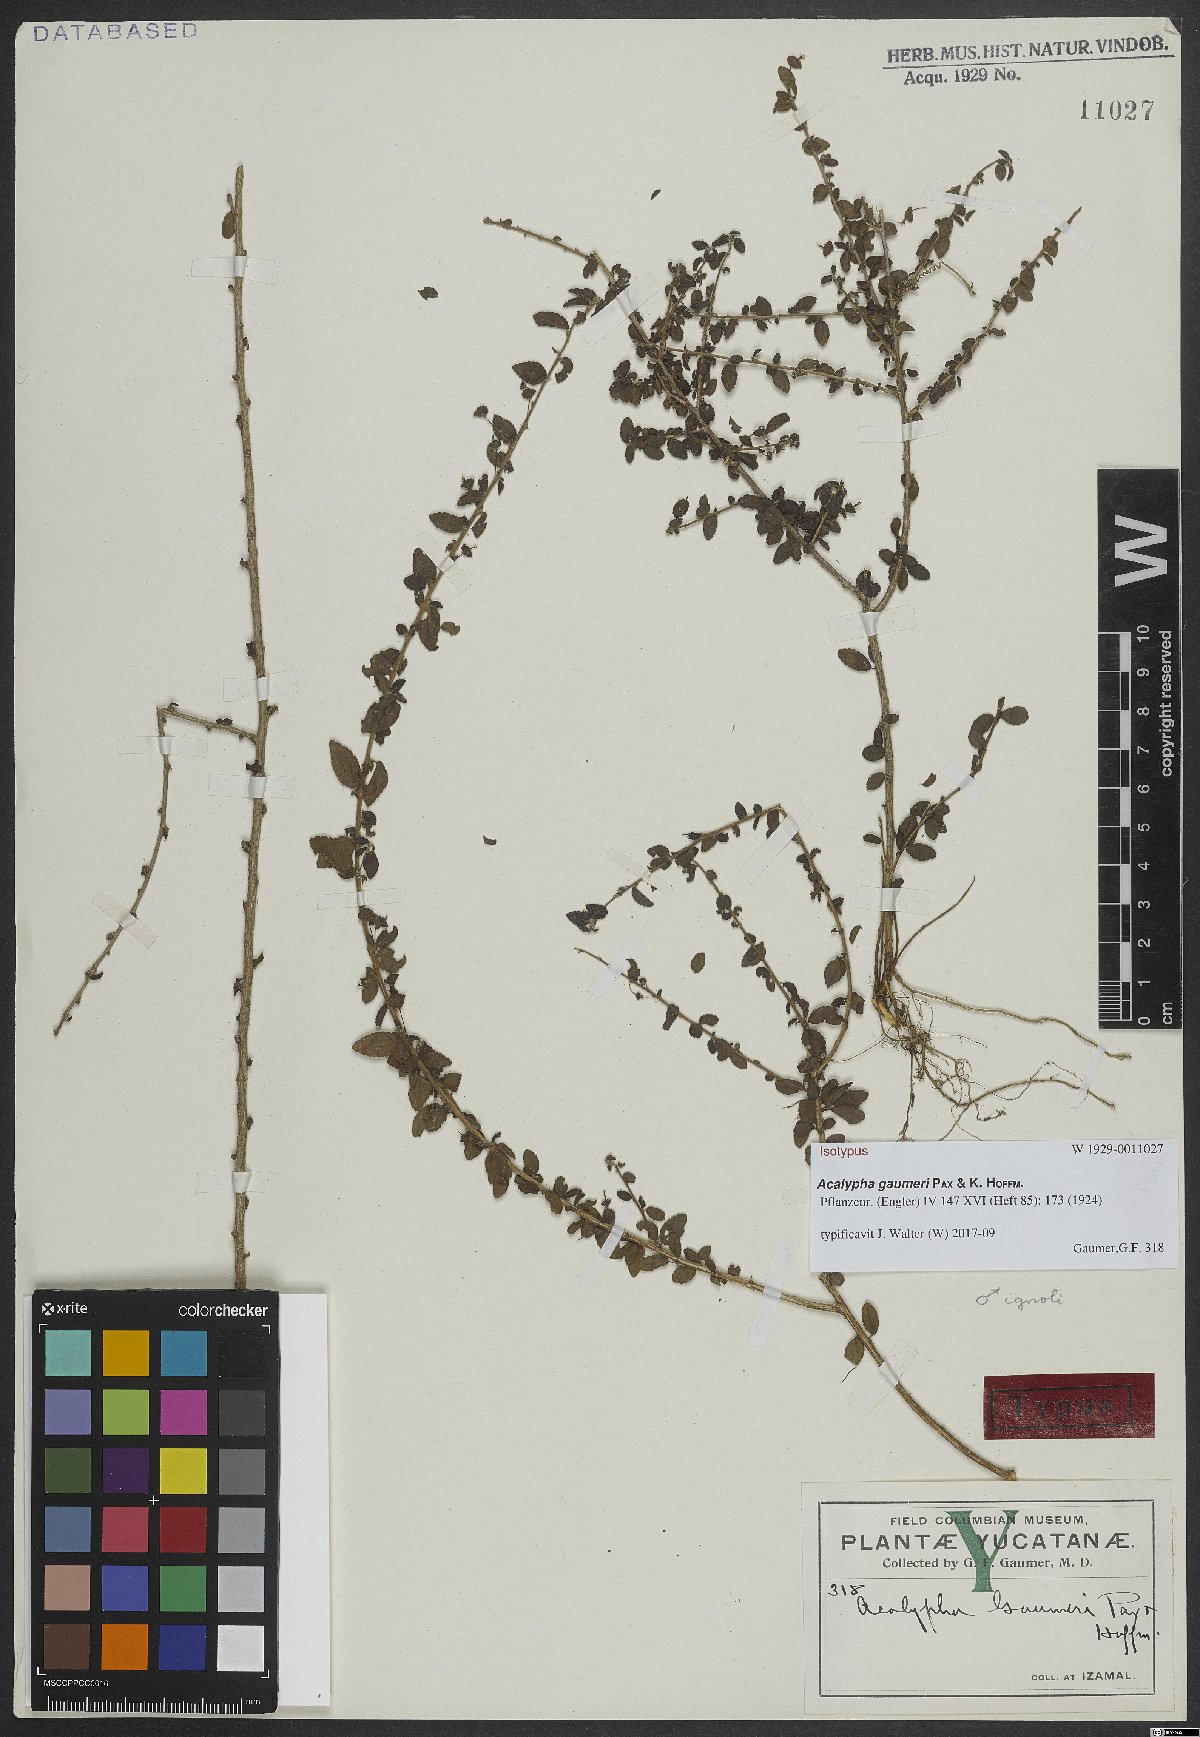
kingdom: Plantae
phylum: Tracheophyta
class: Magnoliopsida
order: Malpighiales
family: Euphorbiaceae
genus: Acalypha
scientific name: Acalypha gaumeri
